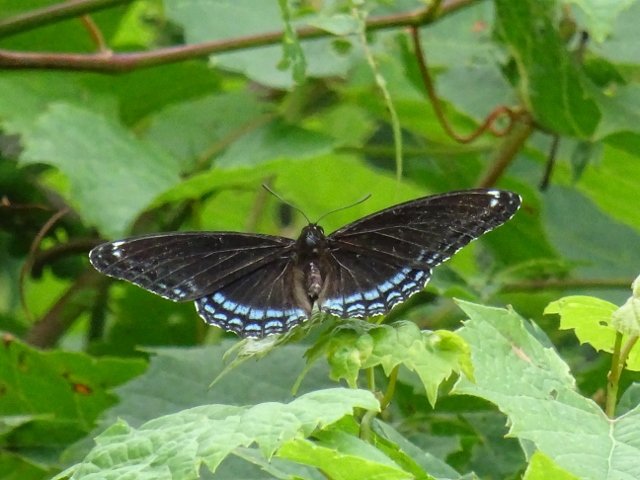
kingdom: Animalia
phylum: Arthropoda
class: Insecta
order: Lepidoptera
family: Nymphalidae
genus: Limenitis
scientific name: Limenitis astyanax
